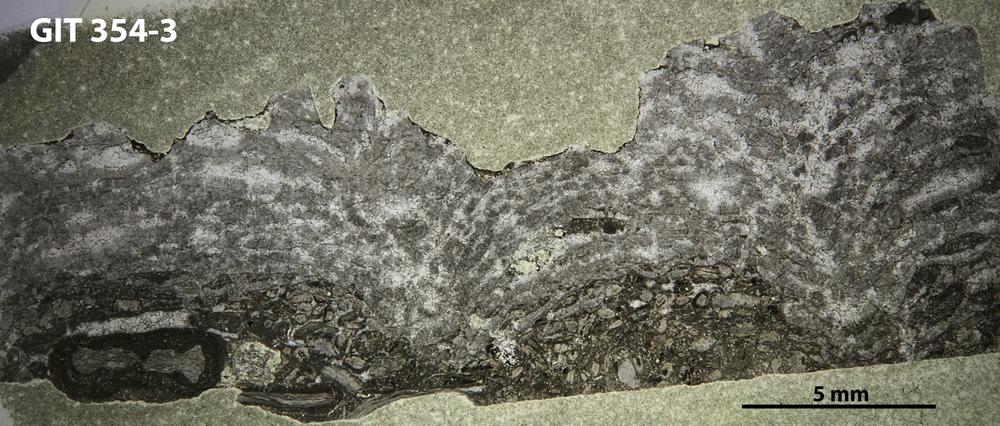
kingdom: Animalia
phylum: Porifera
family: Stromatoceriidae
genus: Cystistroma
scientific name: Cystistroma
